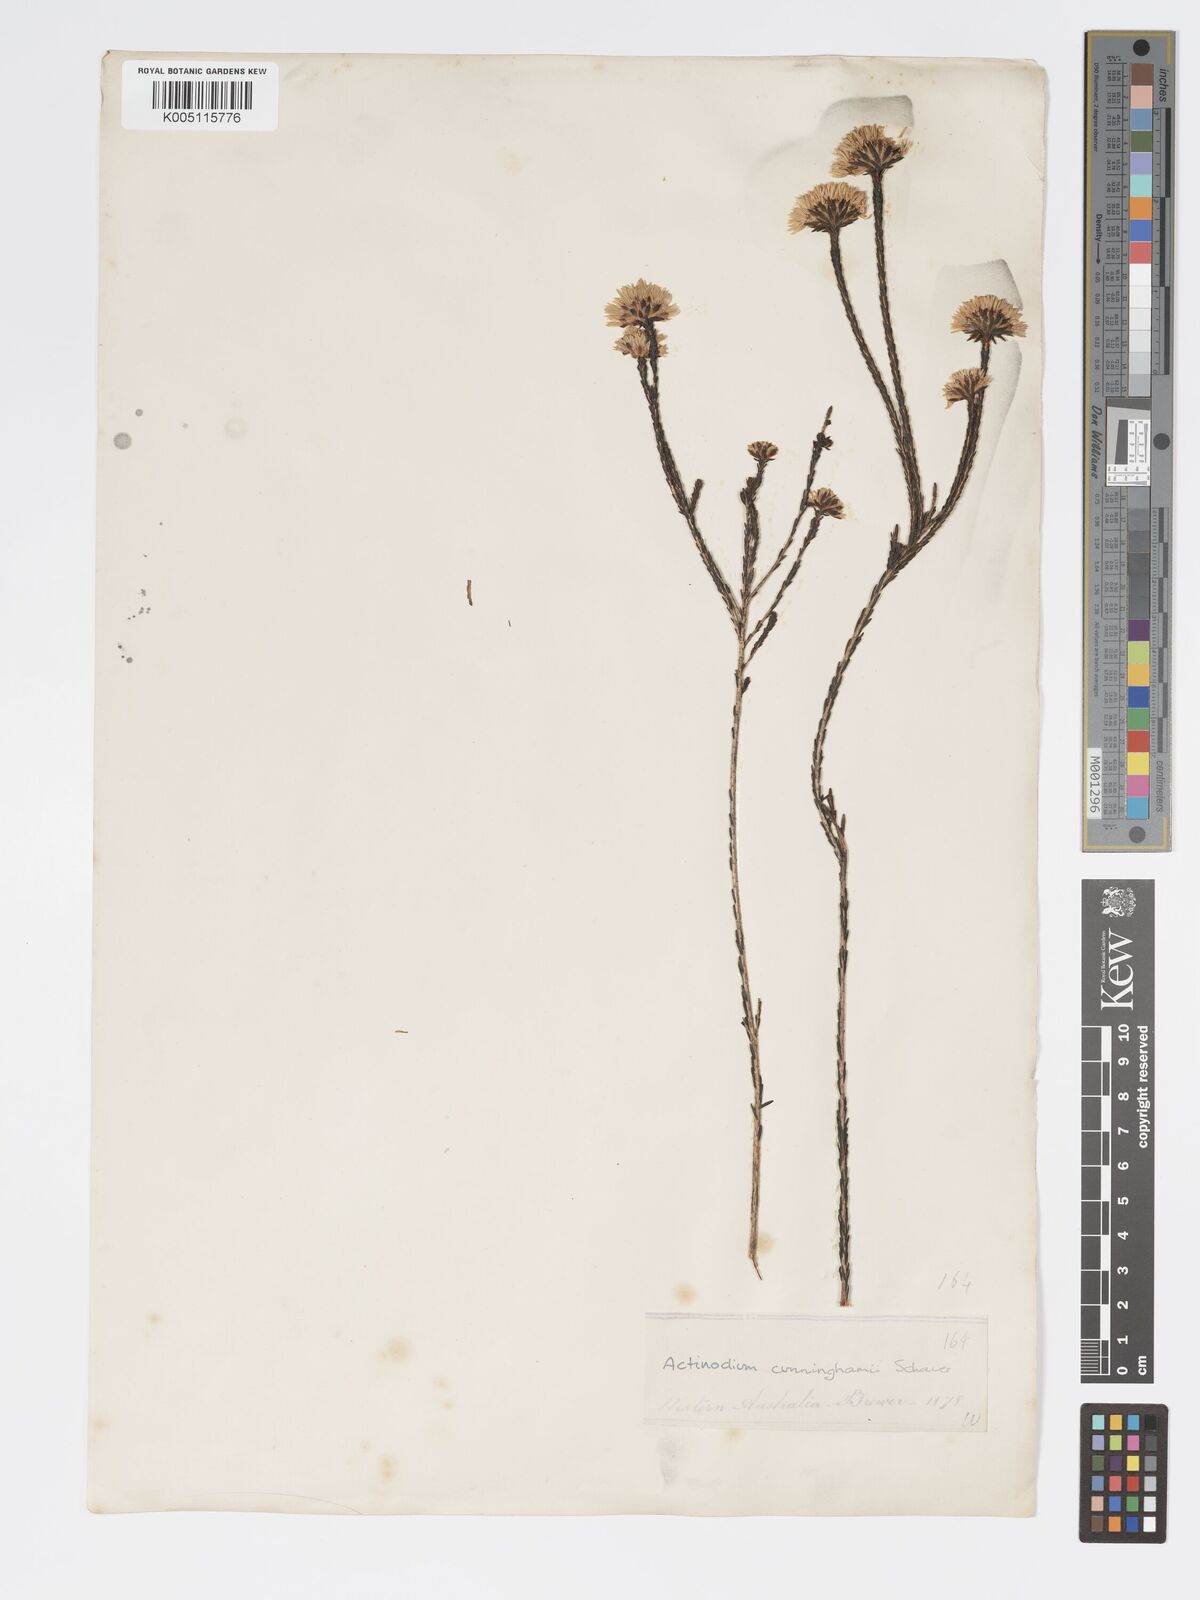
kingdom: Plantae
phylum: Tracheophyta
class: Magnoliopsida
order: Myrtales
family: Myrtaceae
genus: Actinodium
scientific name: Actinodium cunninghamii
